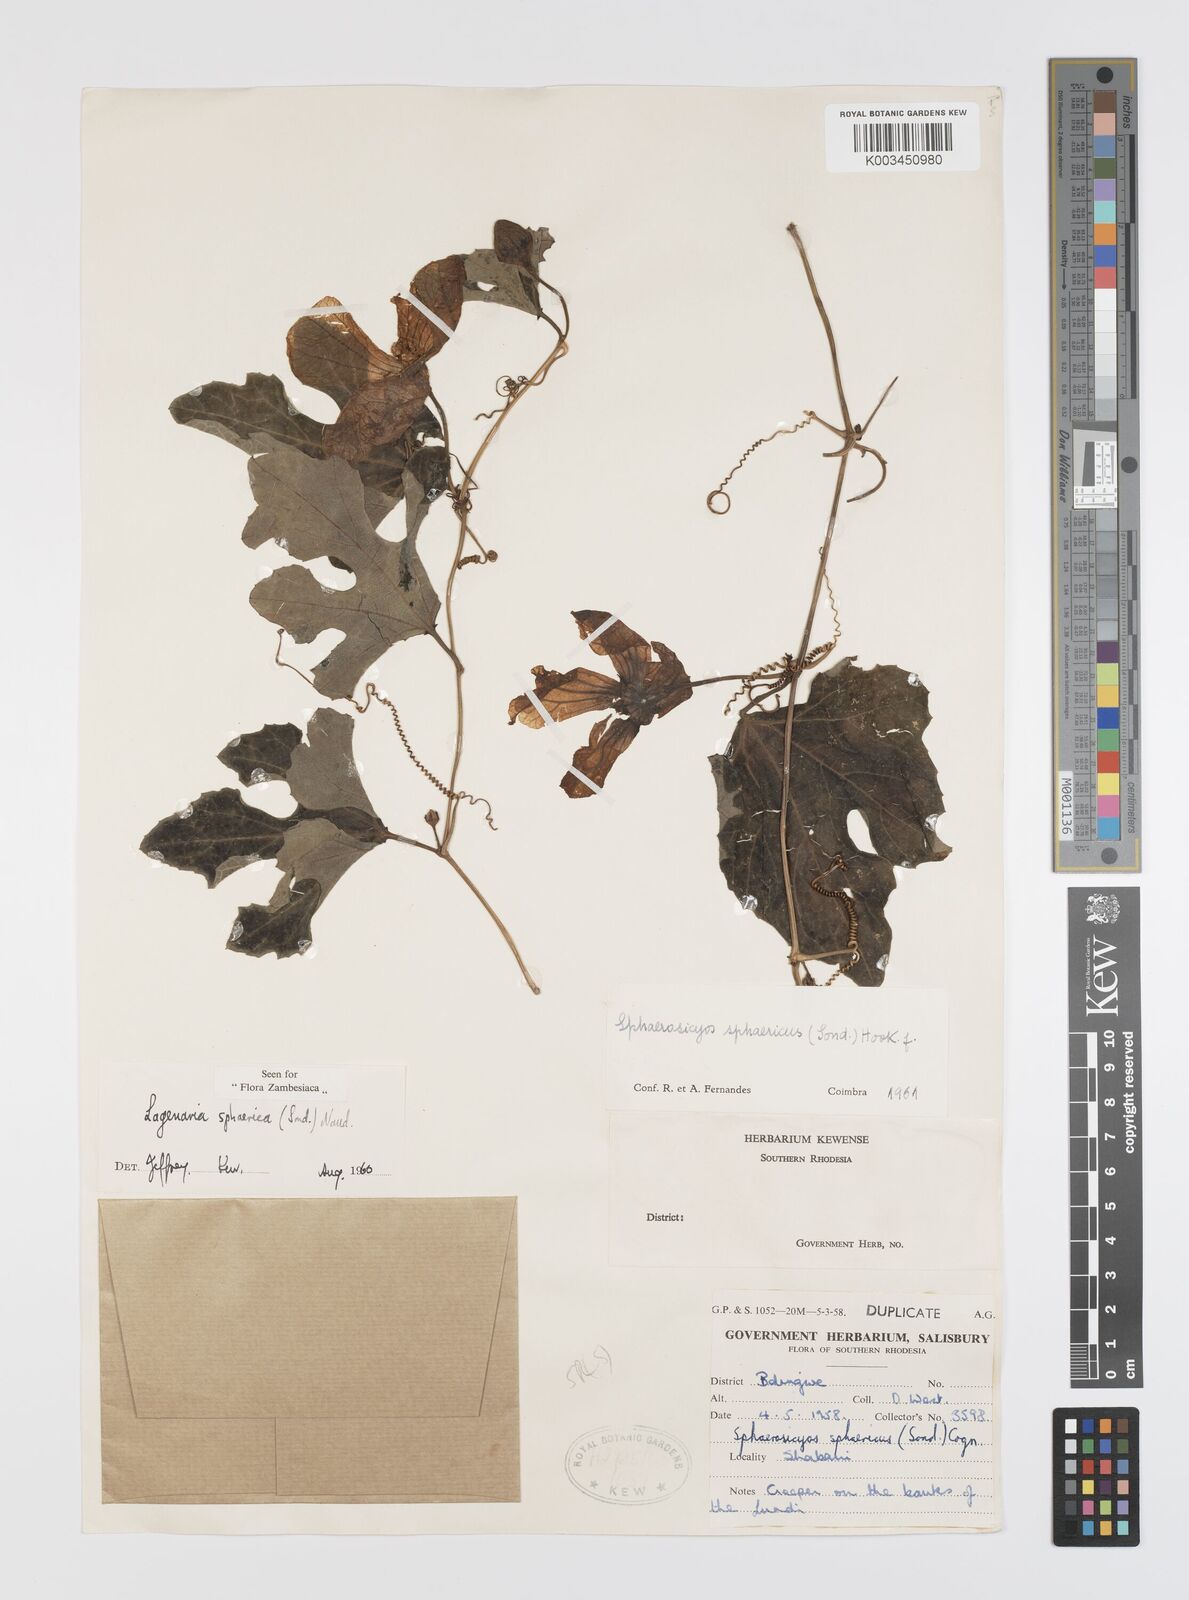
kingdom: Plantae
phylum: Tracheophyta
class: Magnoliopsida
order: Cucurbitales
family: Cucurbitaceae
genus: Lagenaria
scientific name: Lagenaria sphaerica
